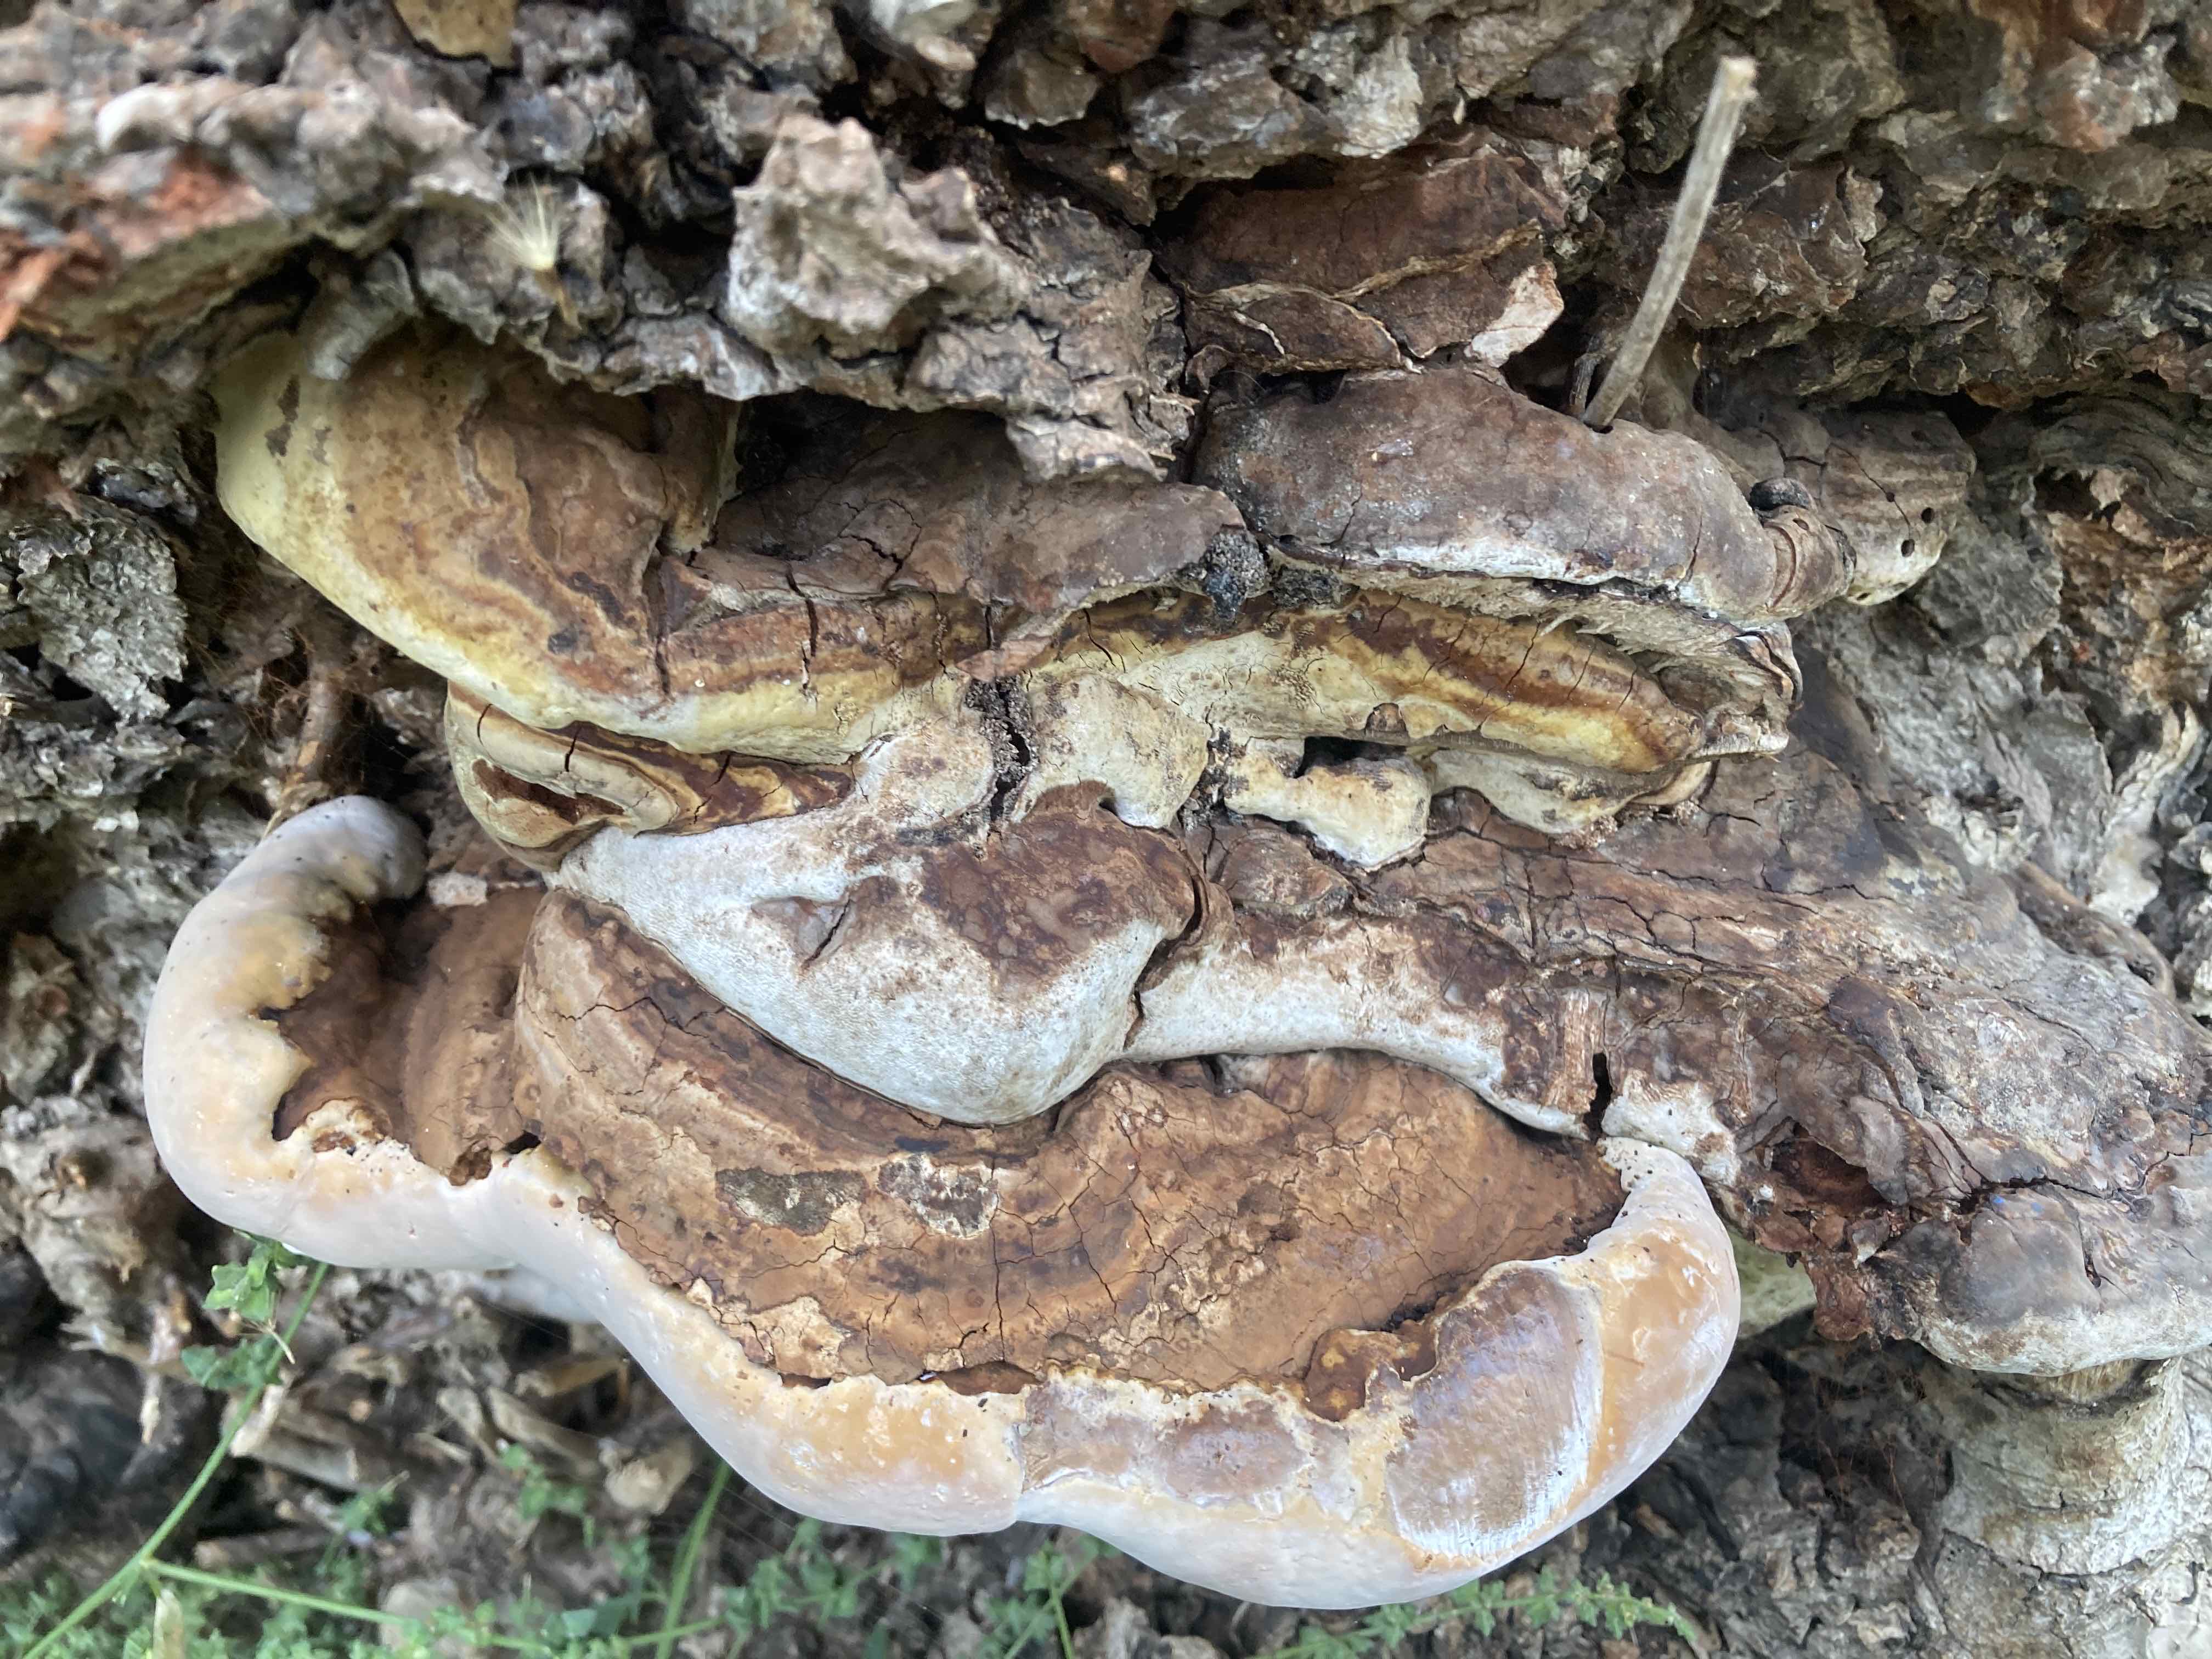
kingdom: Fungi
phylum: Basidiomycota
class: Agaricomycetes
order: Polyporales
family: Polyporaceae
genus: Ganoderma
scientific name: Ganoderma pfeifferi
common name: kobberrød lakporesvamp
